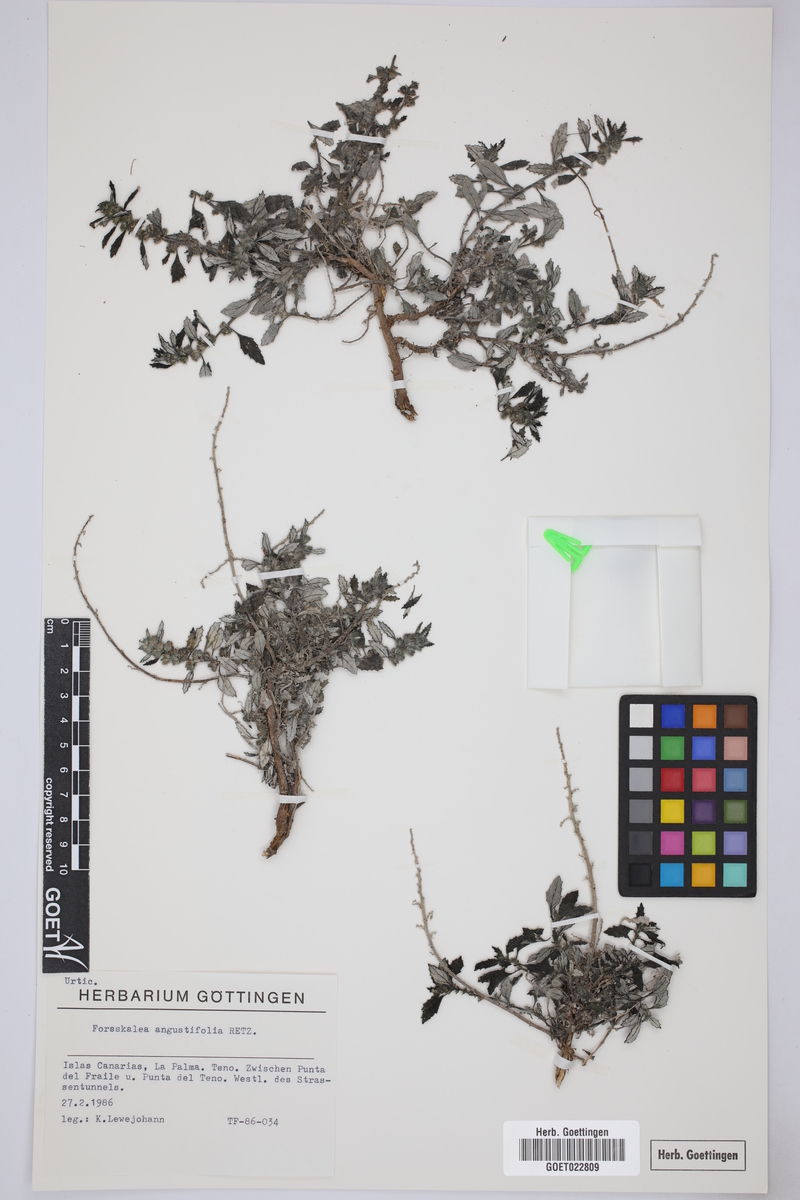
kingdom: Plantae
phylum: Tracheophyta
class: Magnoliopsida
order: Rosales
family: Urticaceae
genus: Forsskaolea
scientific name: Forsskaolea angustifolia
